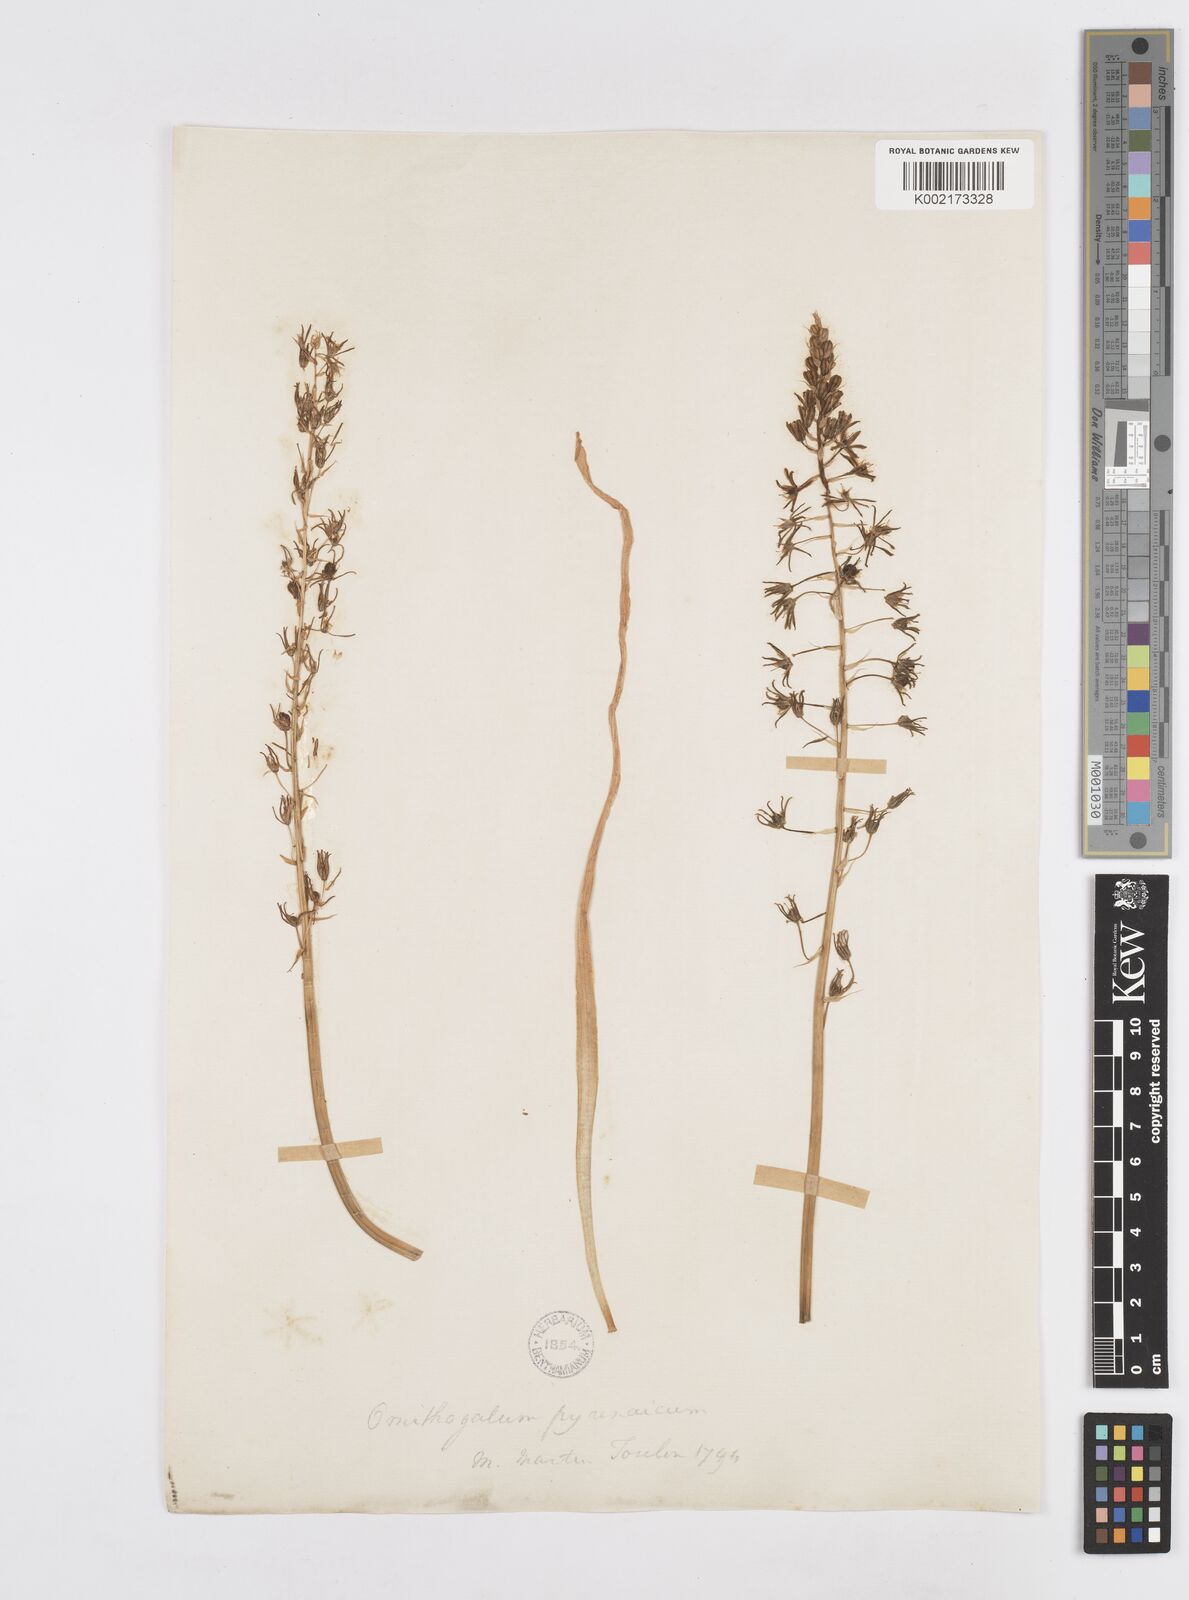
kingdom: Plantae
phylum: Tracheophyta
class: Liliopsida
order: Asparagales
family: Asparagaceae
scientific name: Asparagaceae
